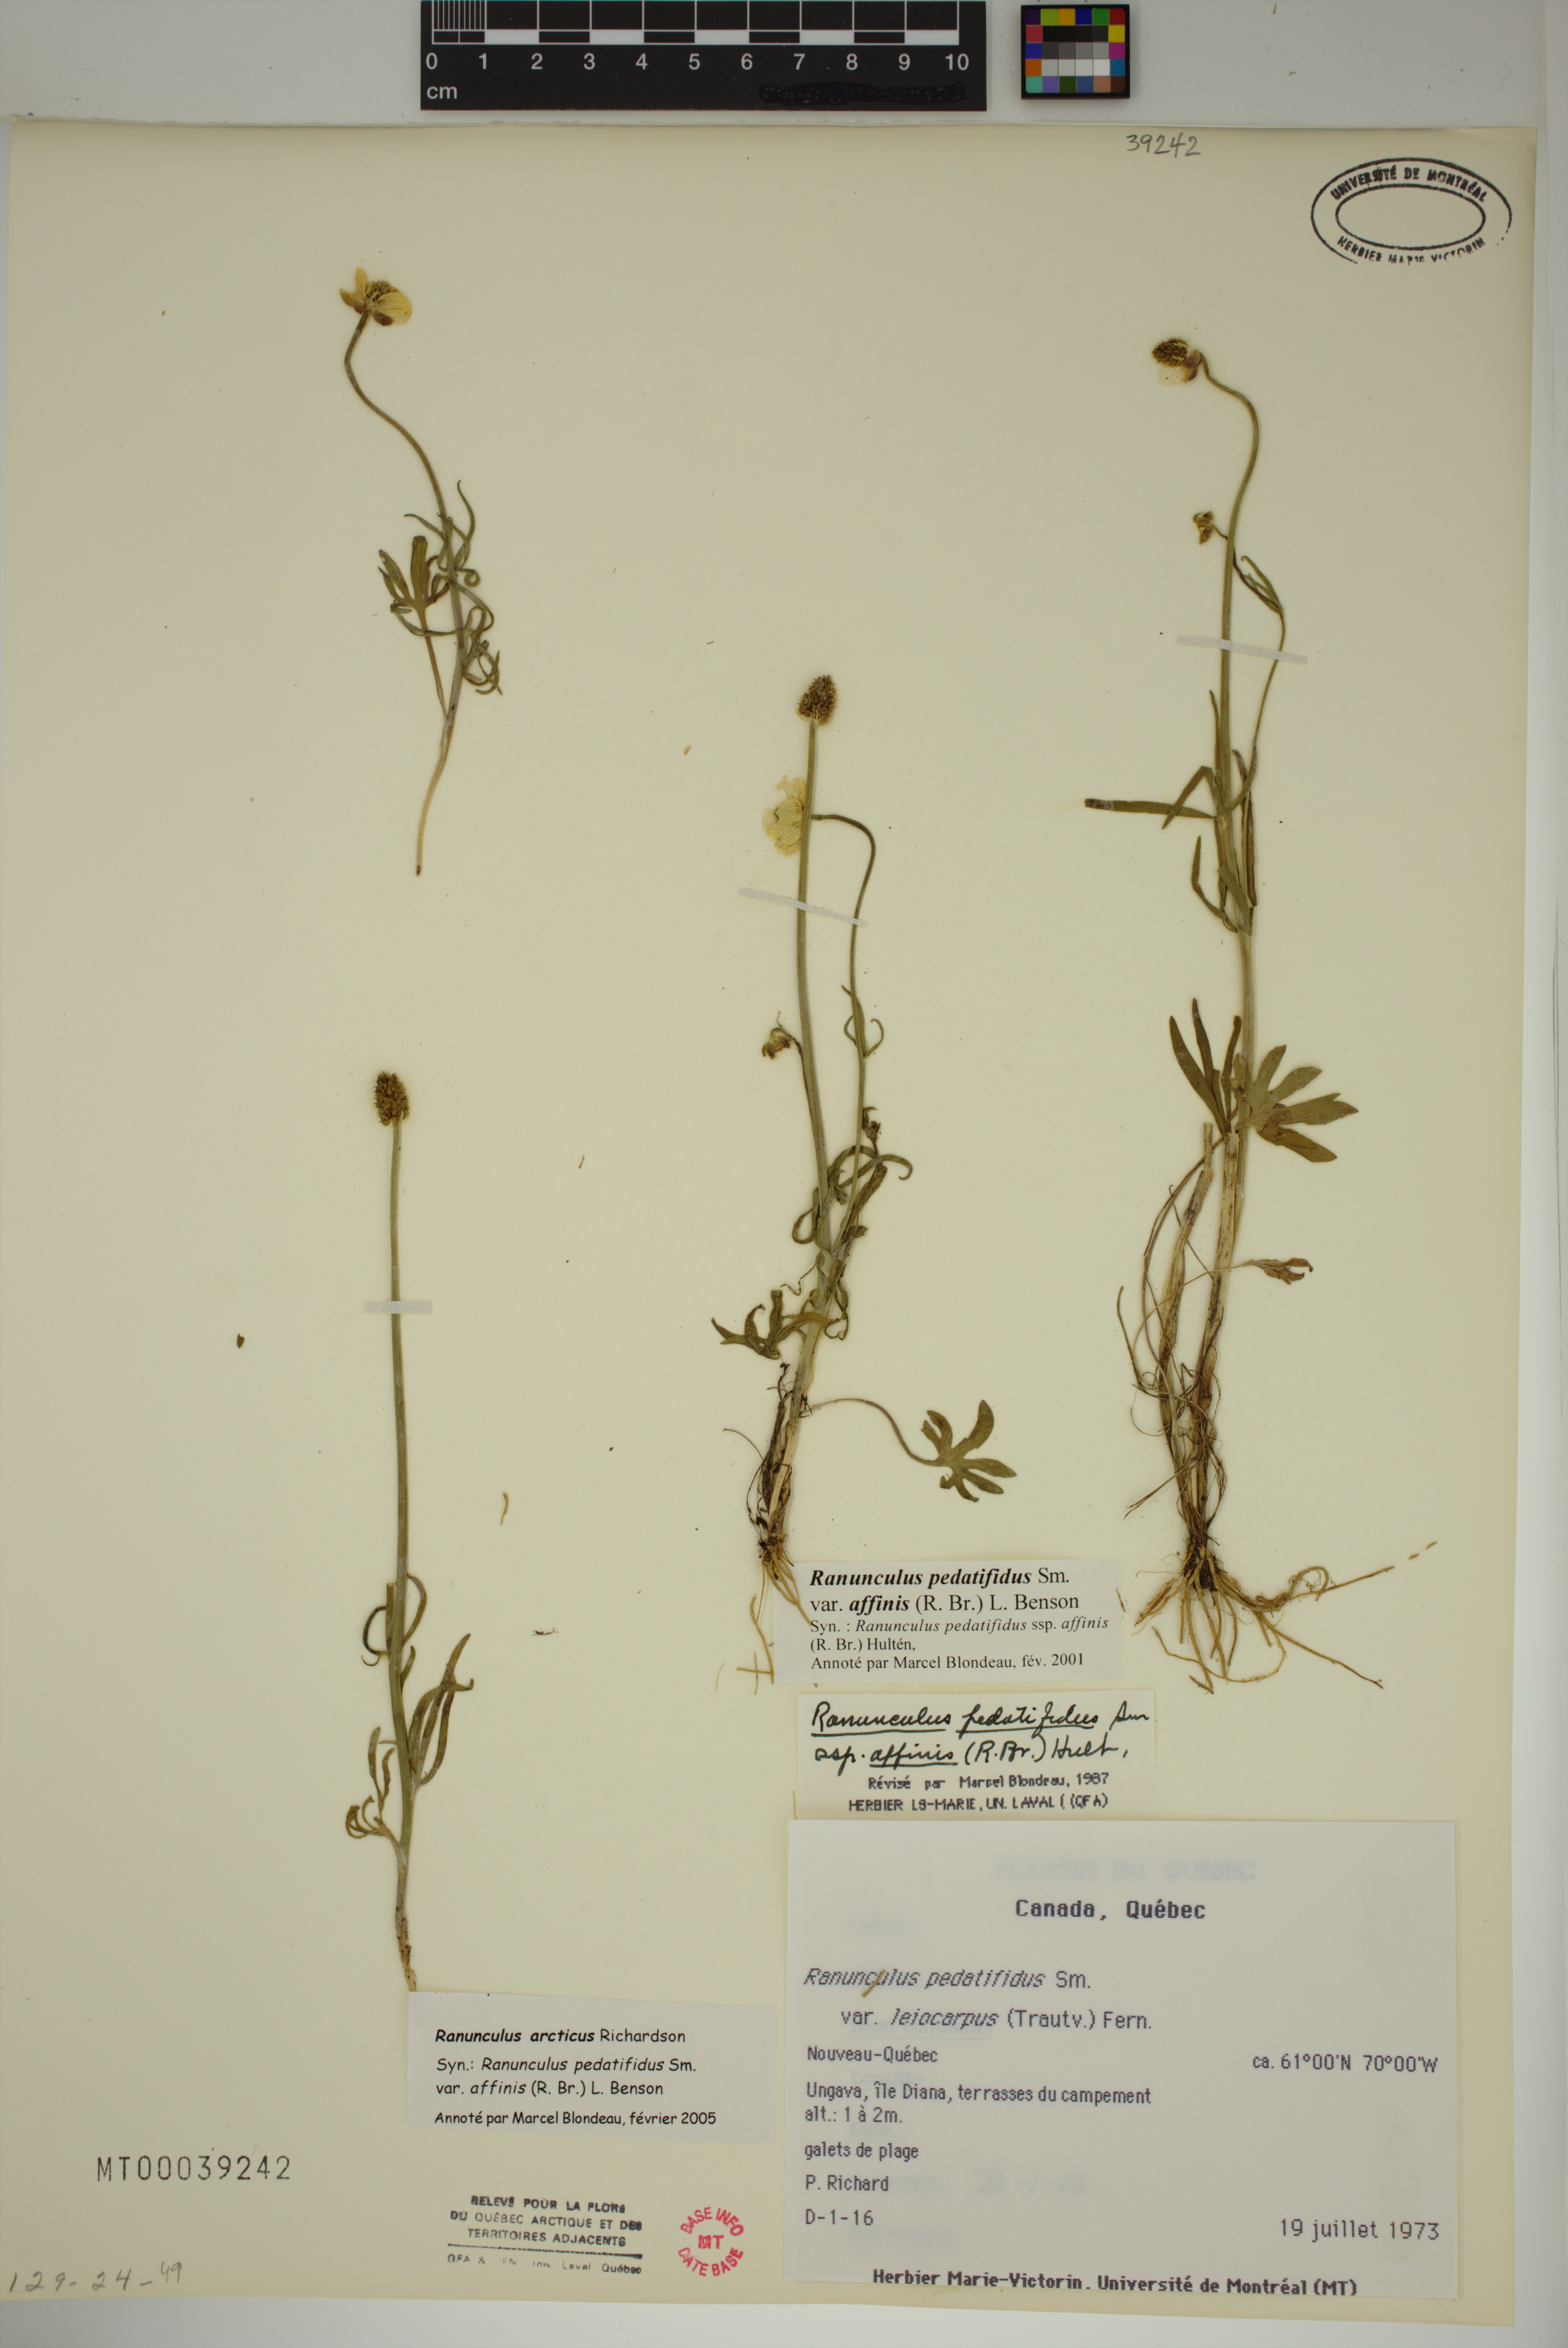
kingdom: Plantae
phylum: Tracheophyta
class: Magnoliopsida
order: Ranunculales
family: Ranunculaceae
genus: Ranunculus
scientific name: Ranunculus arcticus
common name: Bird's-foot buttercup
